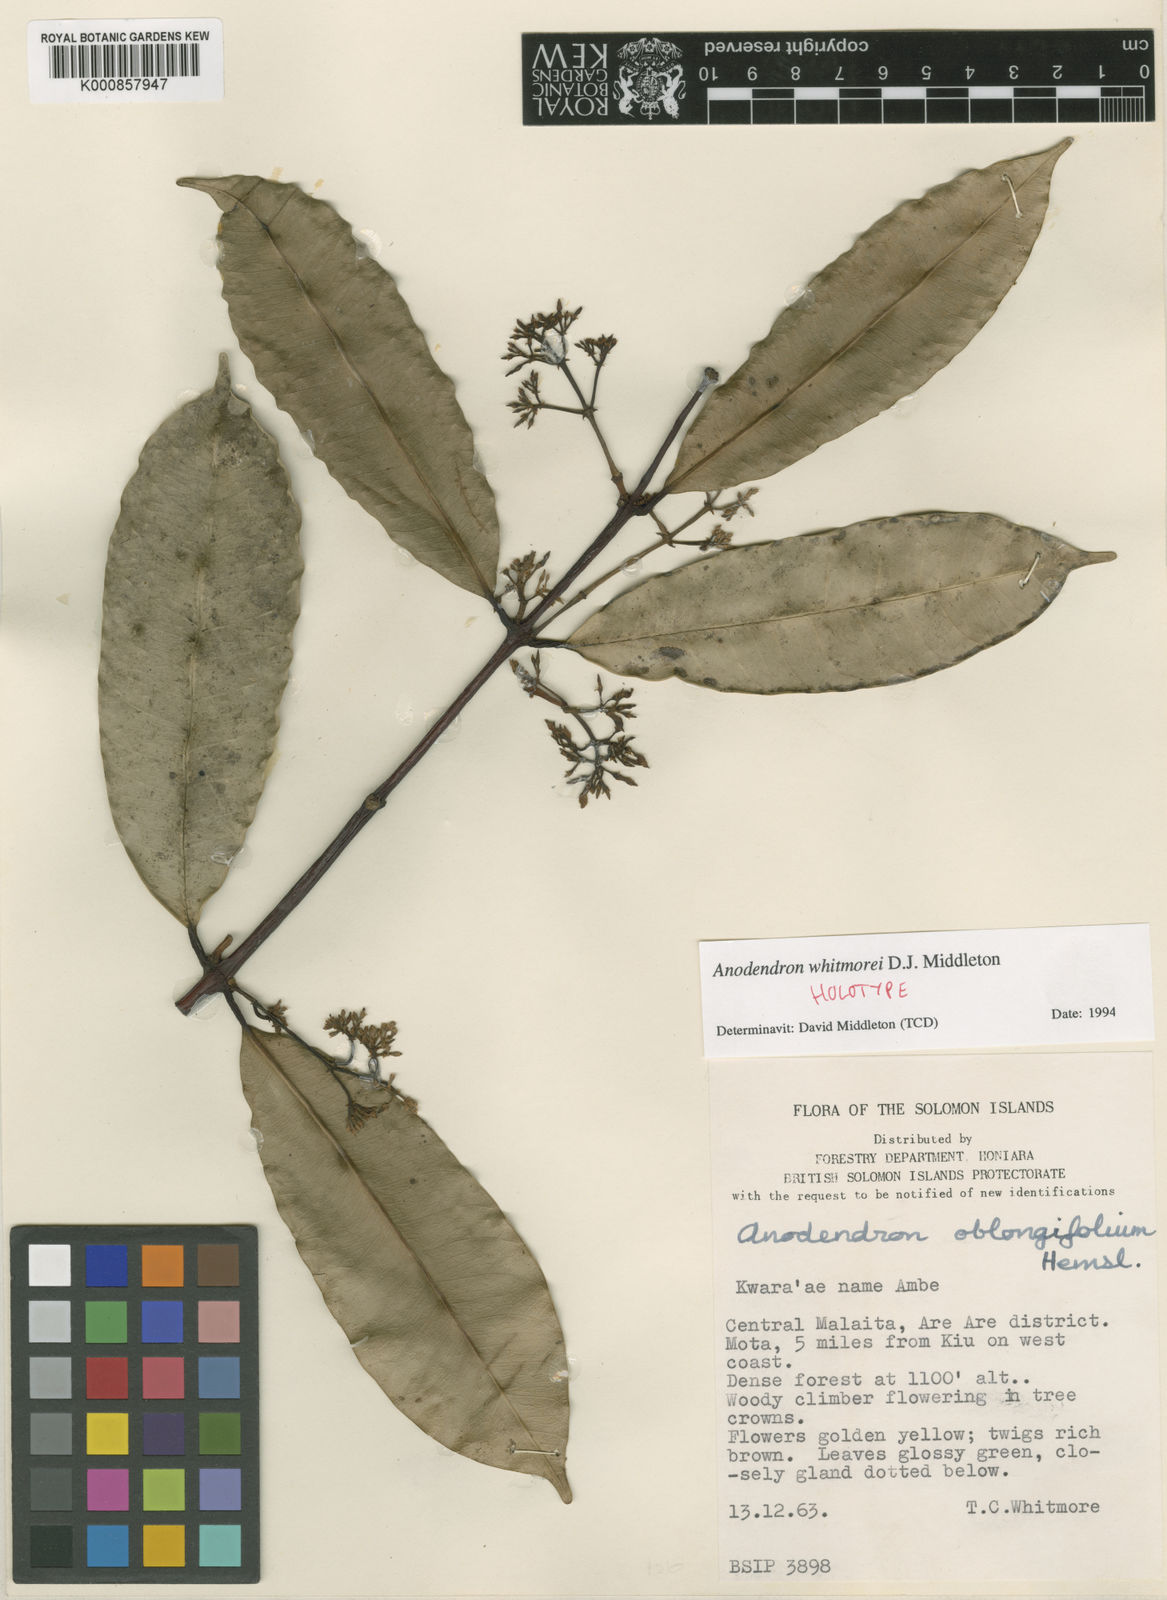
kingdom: Plantae
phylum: Tracheophyta
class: Magnoliopsida
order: Gentianales
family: Apocynaceae
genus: Anodendron
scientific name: Anodendron whitmorei
